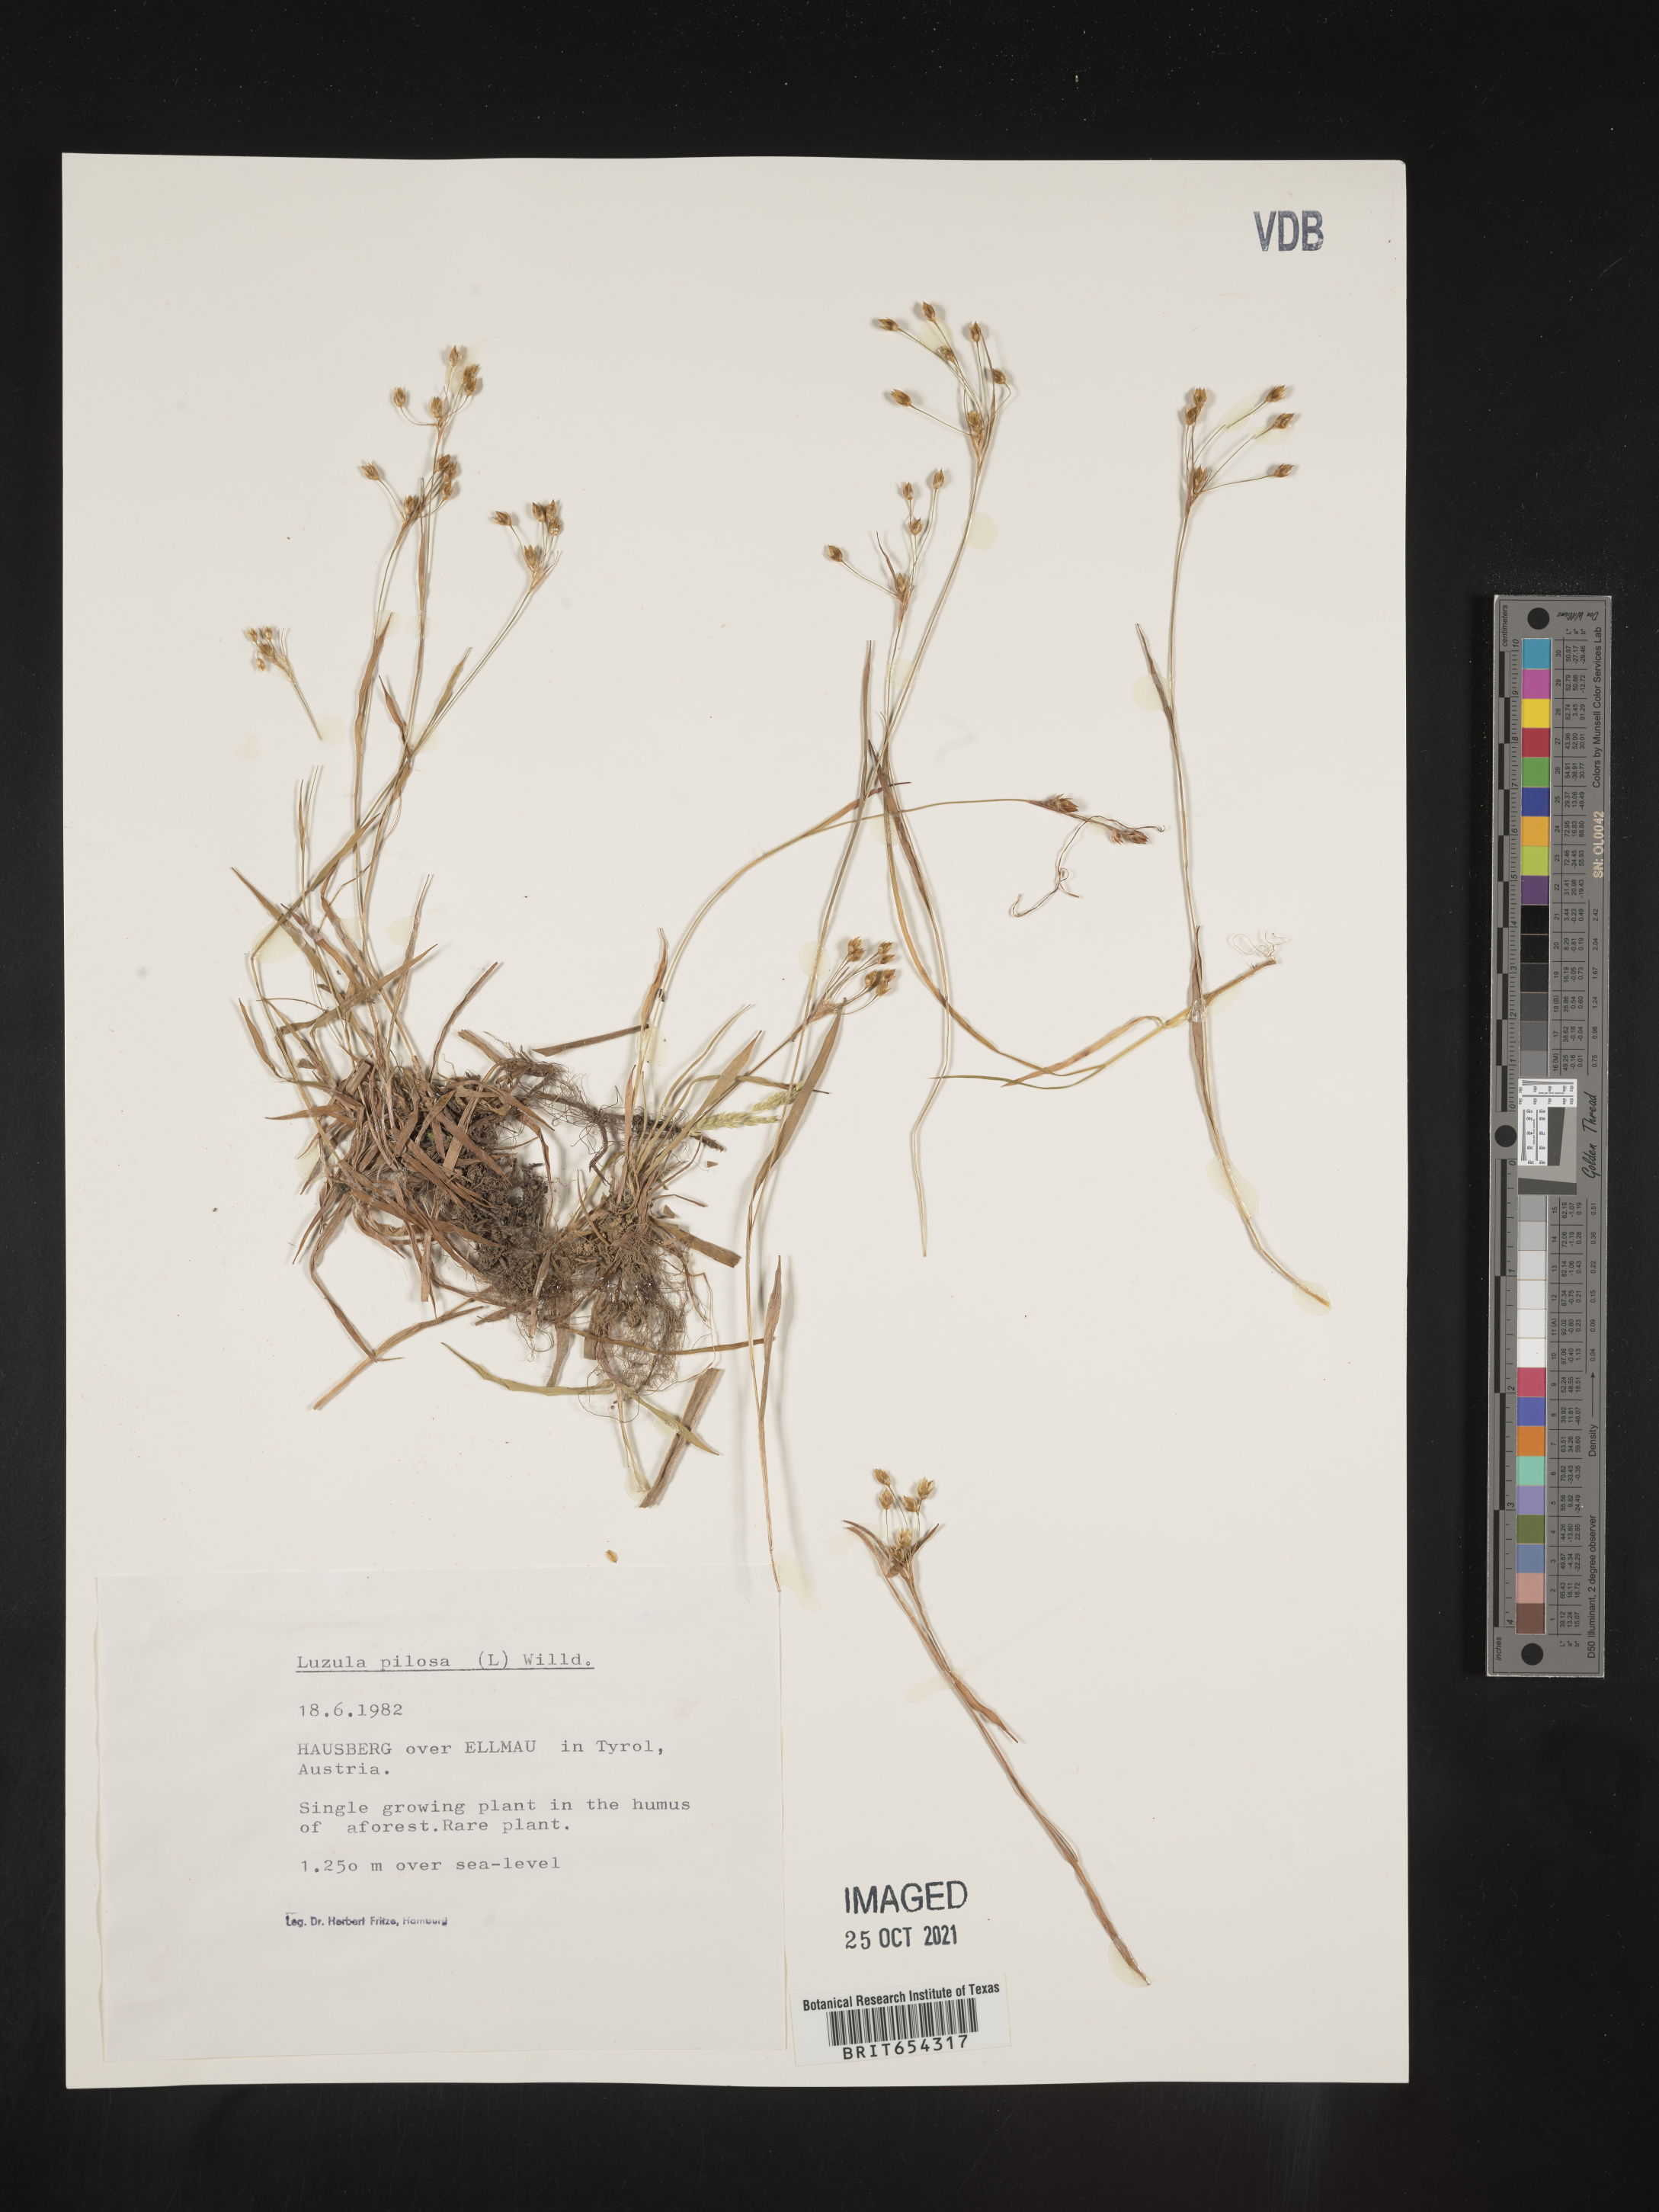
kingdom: Plantae
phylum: Tracheophyta
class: Liliopsida
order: Poales
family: Juncaceae
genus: Luzula
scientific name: Luzula
